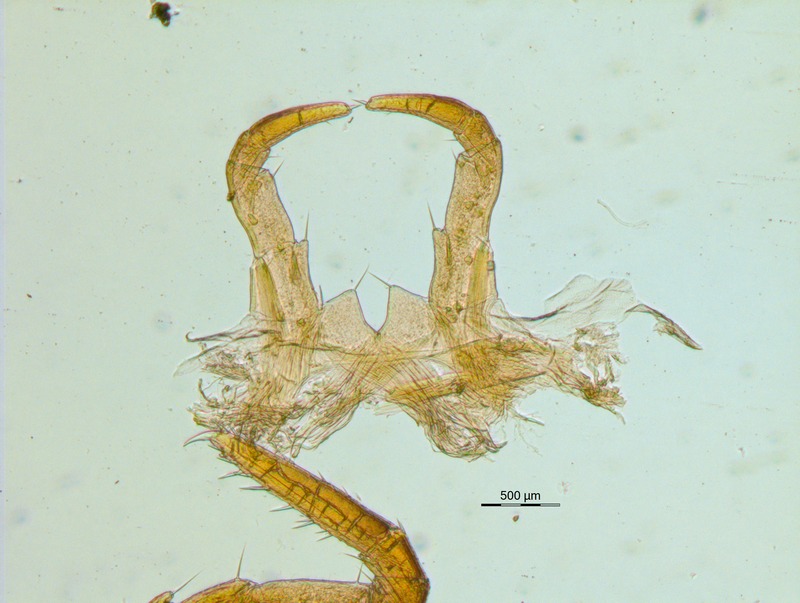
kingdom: Animalia
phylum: Arthropoda
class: Diplopoda
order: Glomerida
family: Glomeridae
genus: Glomeris
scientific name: Glomeris connexa
